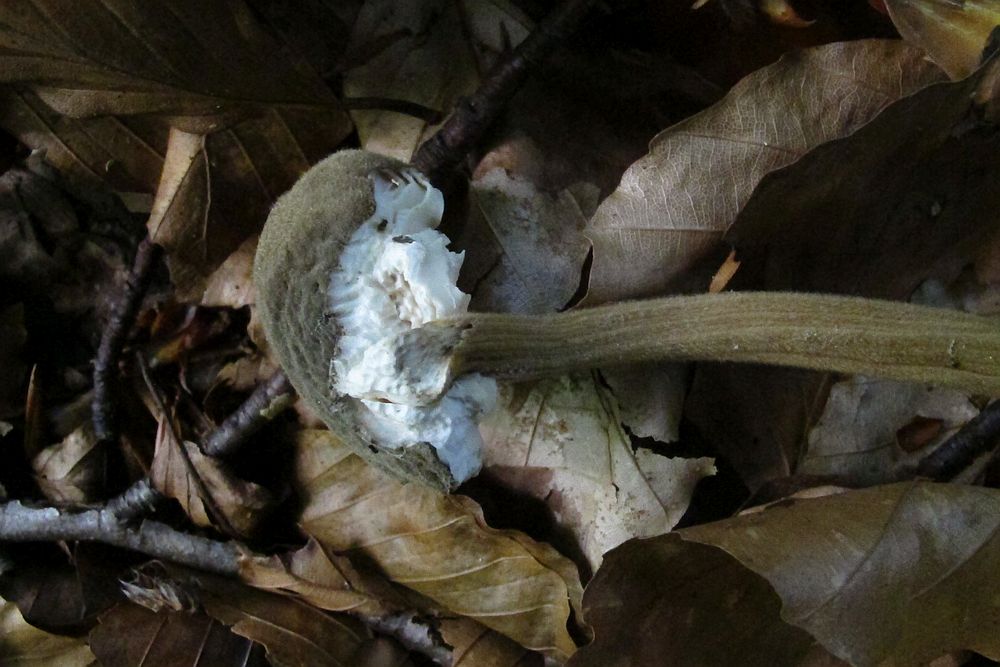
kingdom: Fungi
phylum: Basidiomycota
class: Agaricomycetes
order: Agaricales
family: Physalacriaceae
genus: Paraxerula
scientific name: Paraxerula caussei
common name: dunet pælerodshat
